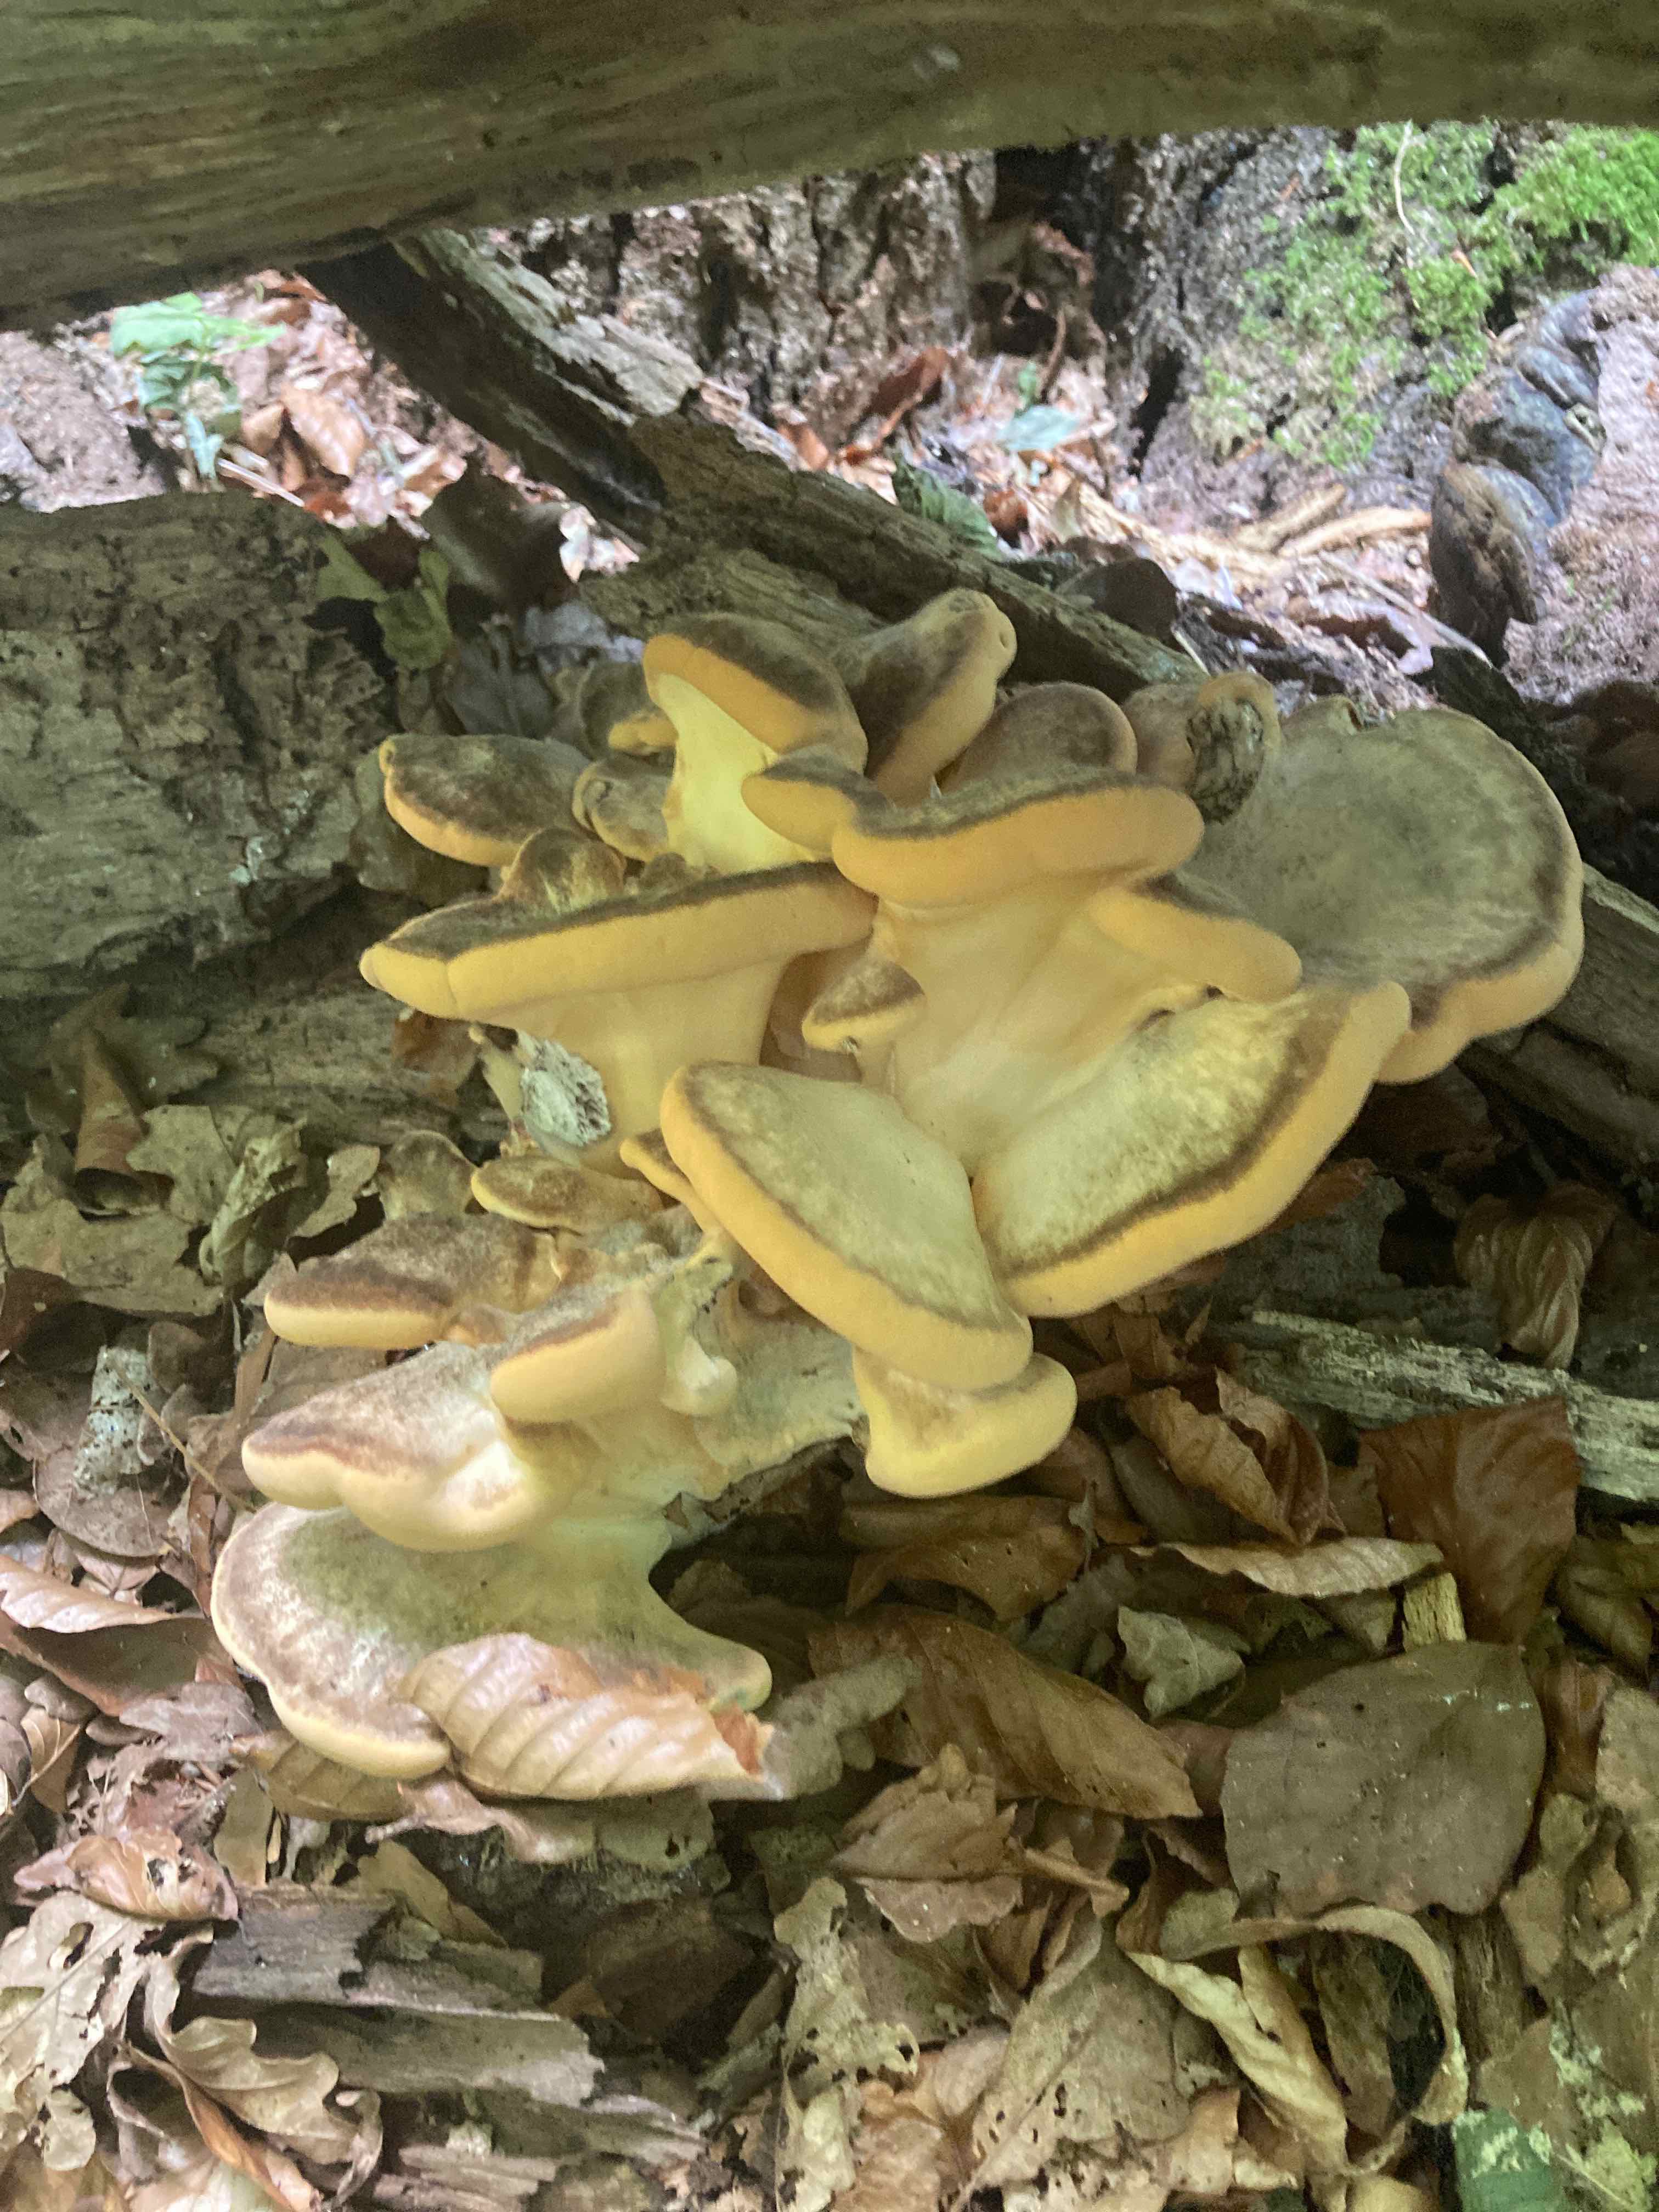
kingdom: Fungi
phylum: Basidiomycota
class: Agaricomycetes
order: Polyporales
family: Meripilaceae
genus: Meripilus
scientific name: Meripilus giganteus
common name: kæmpeporesvamp
